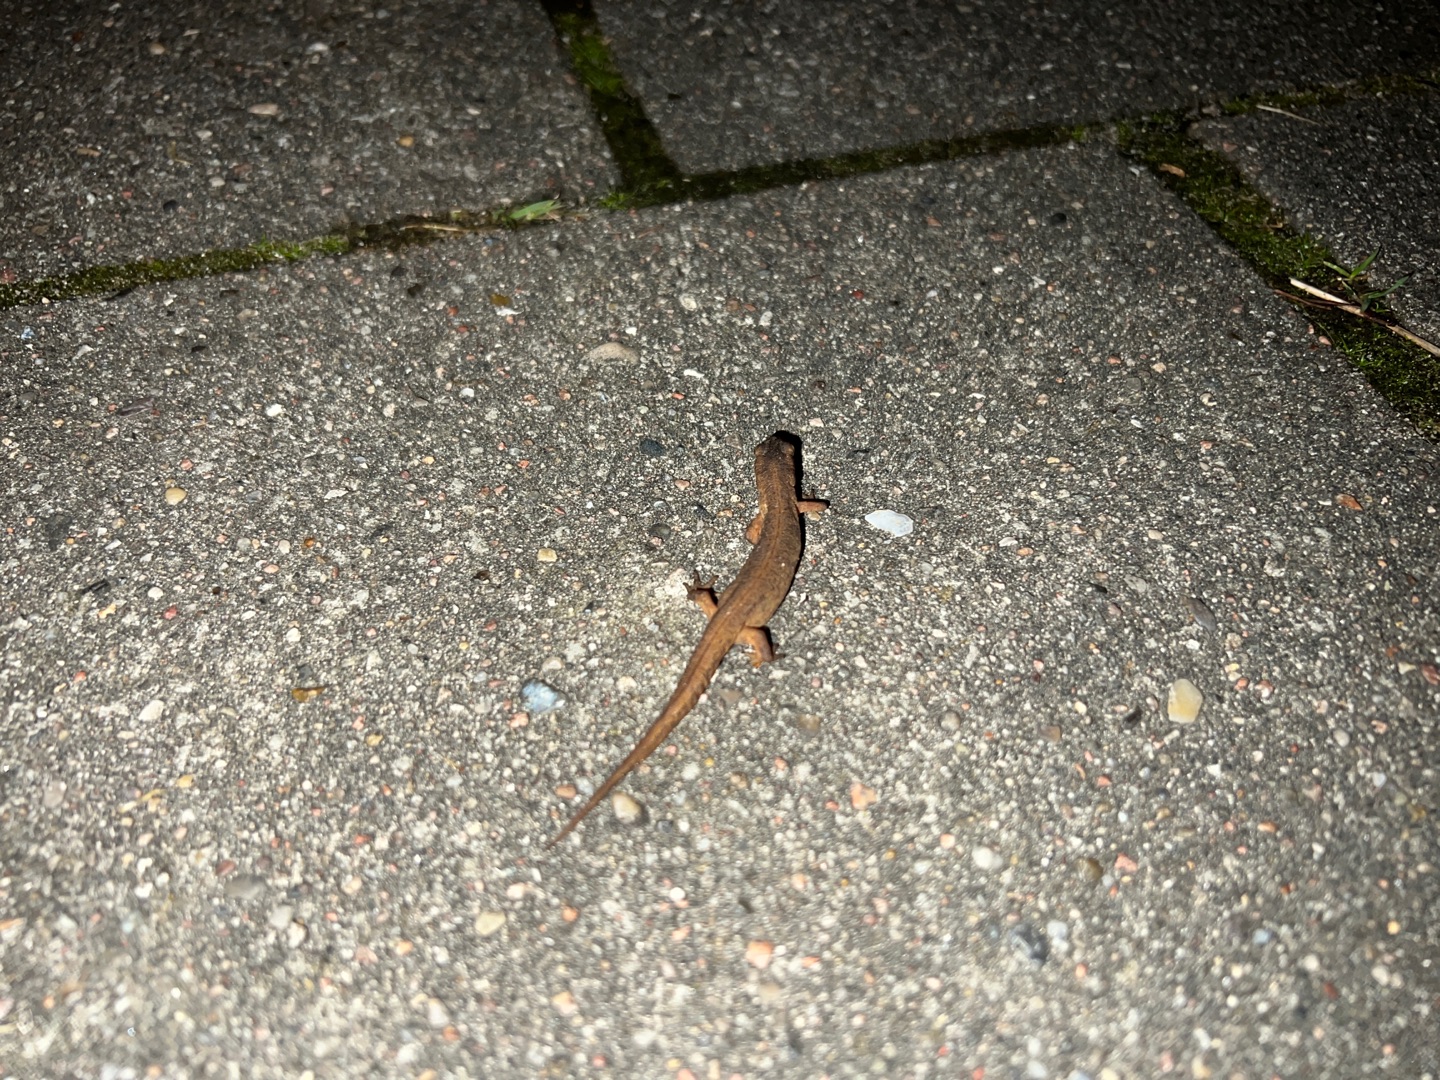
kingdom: Animalia
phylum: Chordata
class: Amphibia
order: Caudata
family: Salamandridae
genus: Lissotriton
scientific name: Lissotriton vulgaris
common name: Lille vandsalamander
